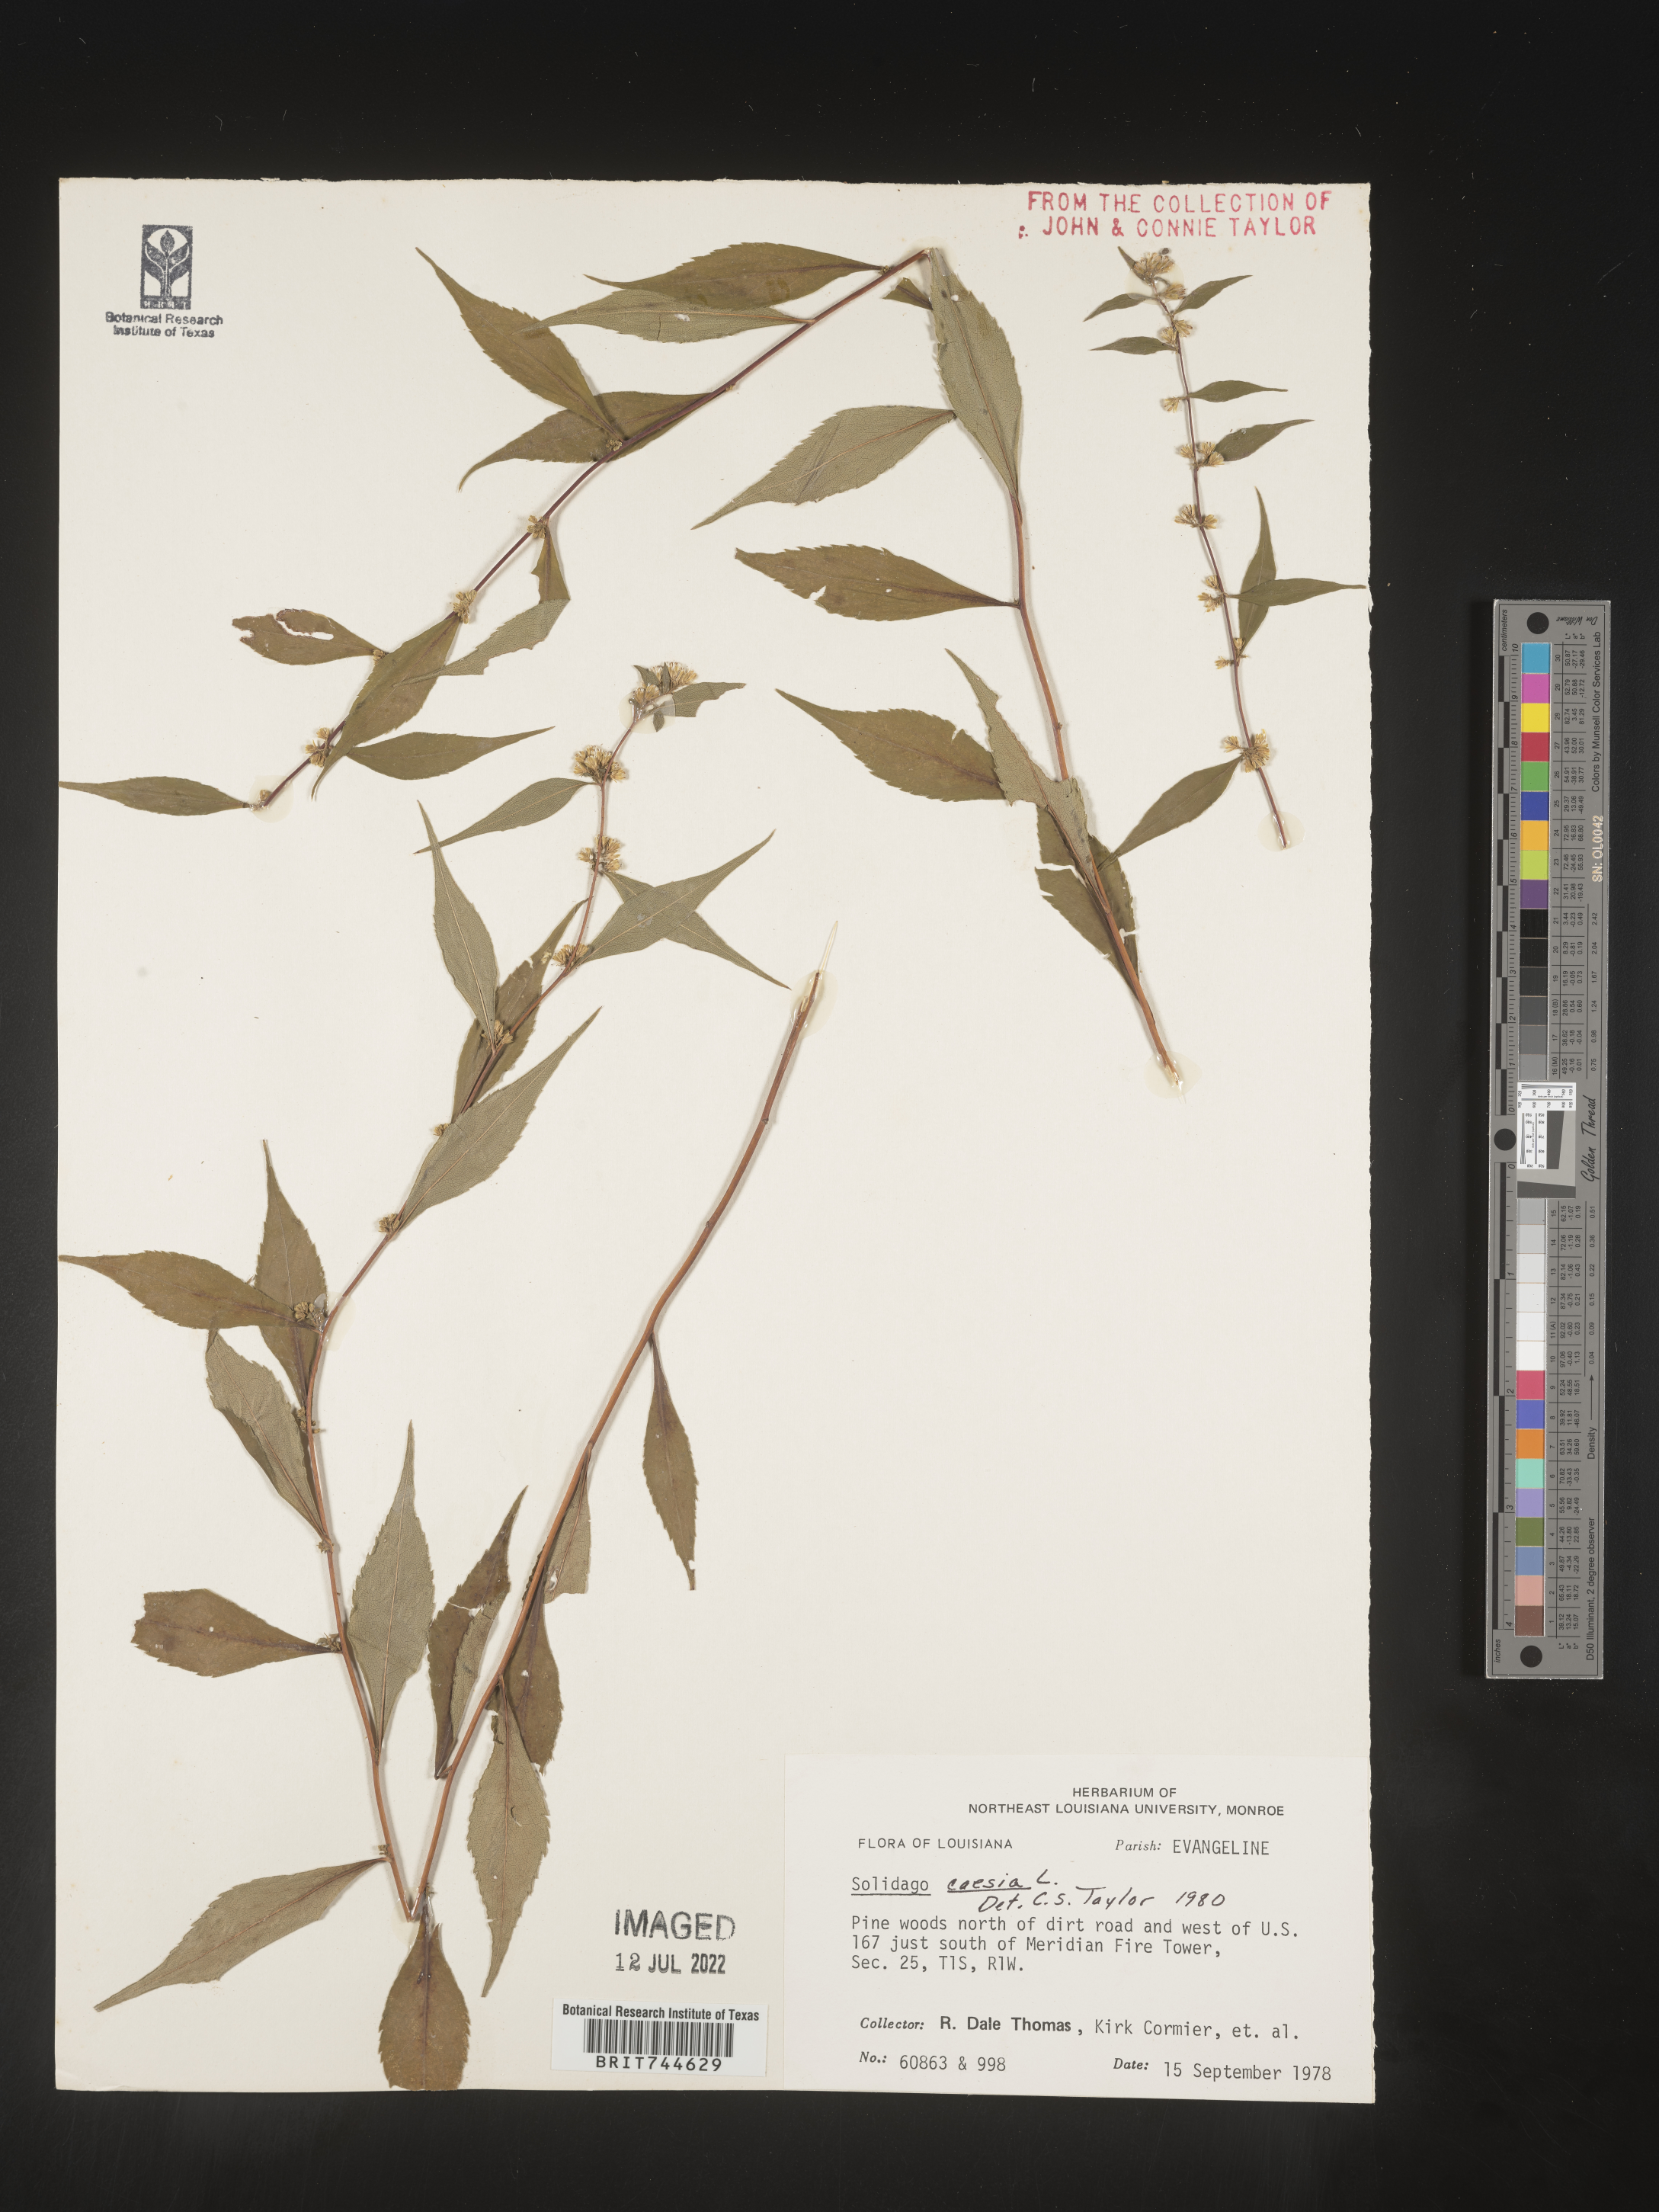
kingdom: Plantae
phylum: Tracheophyta
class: Magnoliopsida
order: Asterales
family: Asteraceae
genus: Solidago
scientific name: Solidago caesia
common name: Woodland goldenrod
